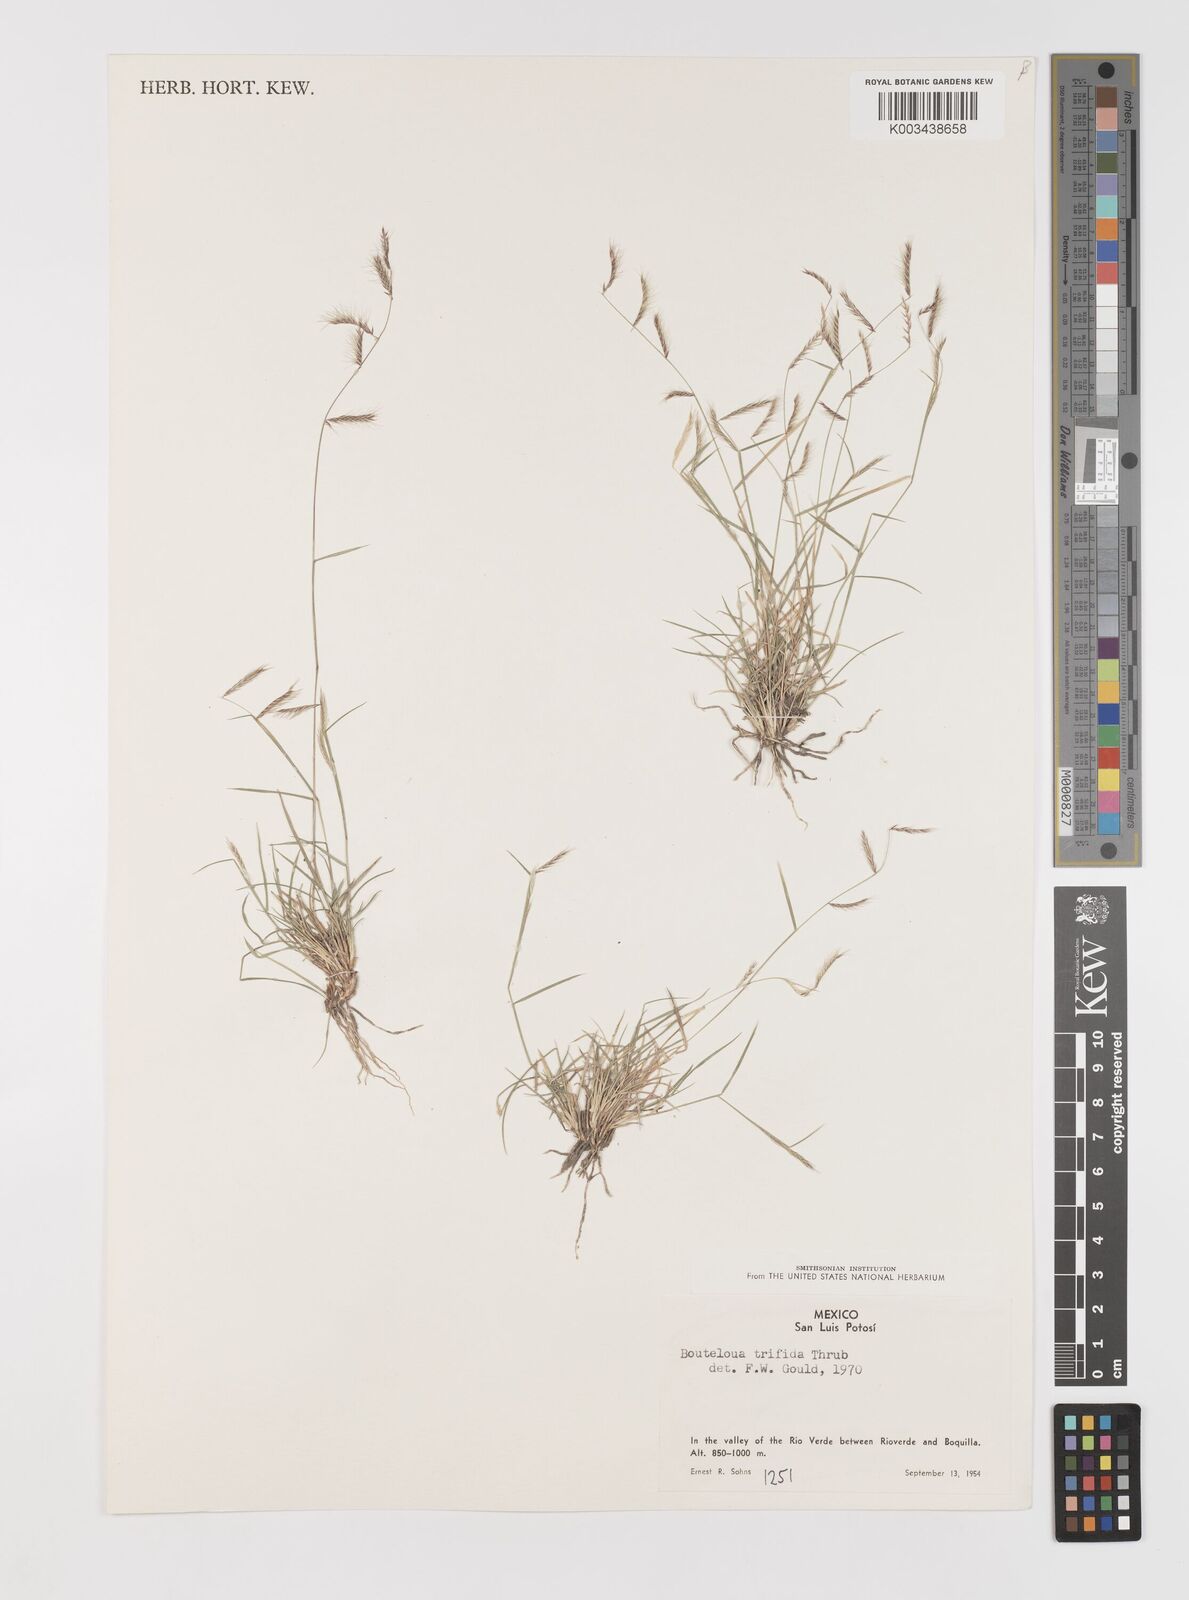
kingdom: Plantae
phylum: Tracheophyta
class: Liliopsida
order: Poales
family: Poaceae
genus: Bouteloua
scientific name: Bouteloua
